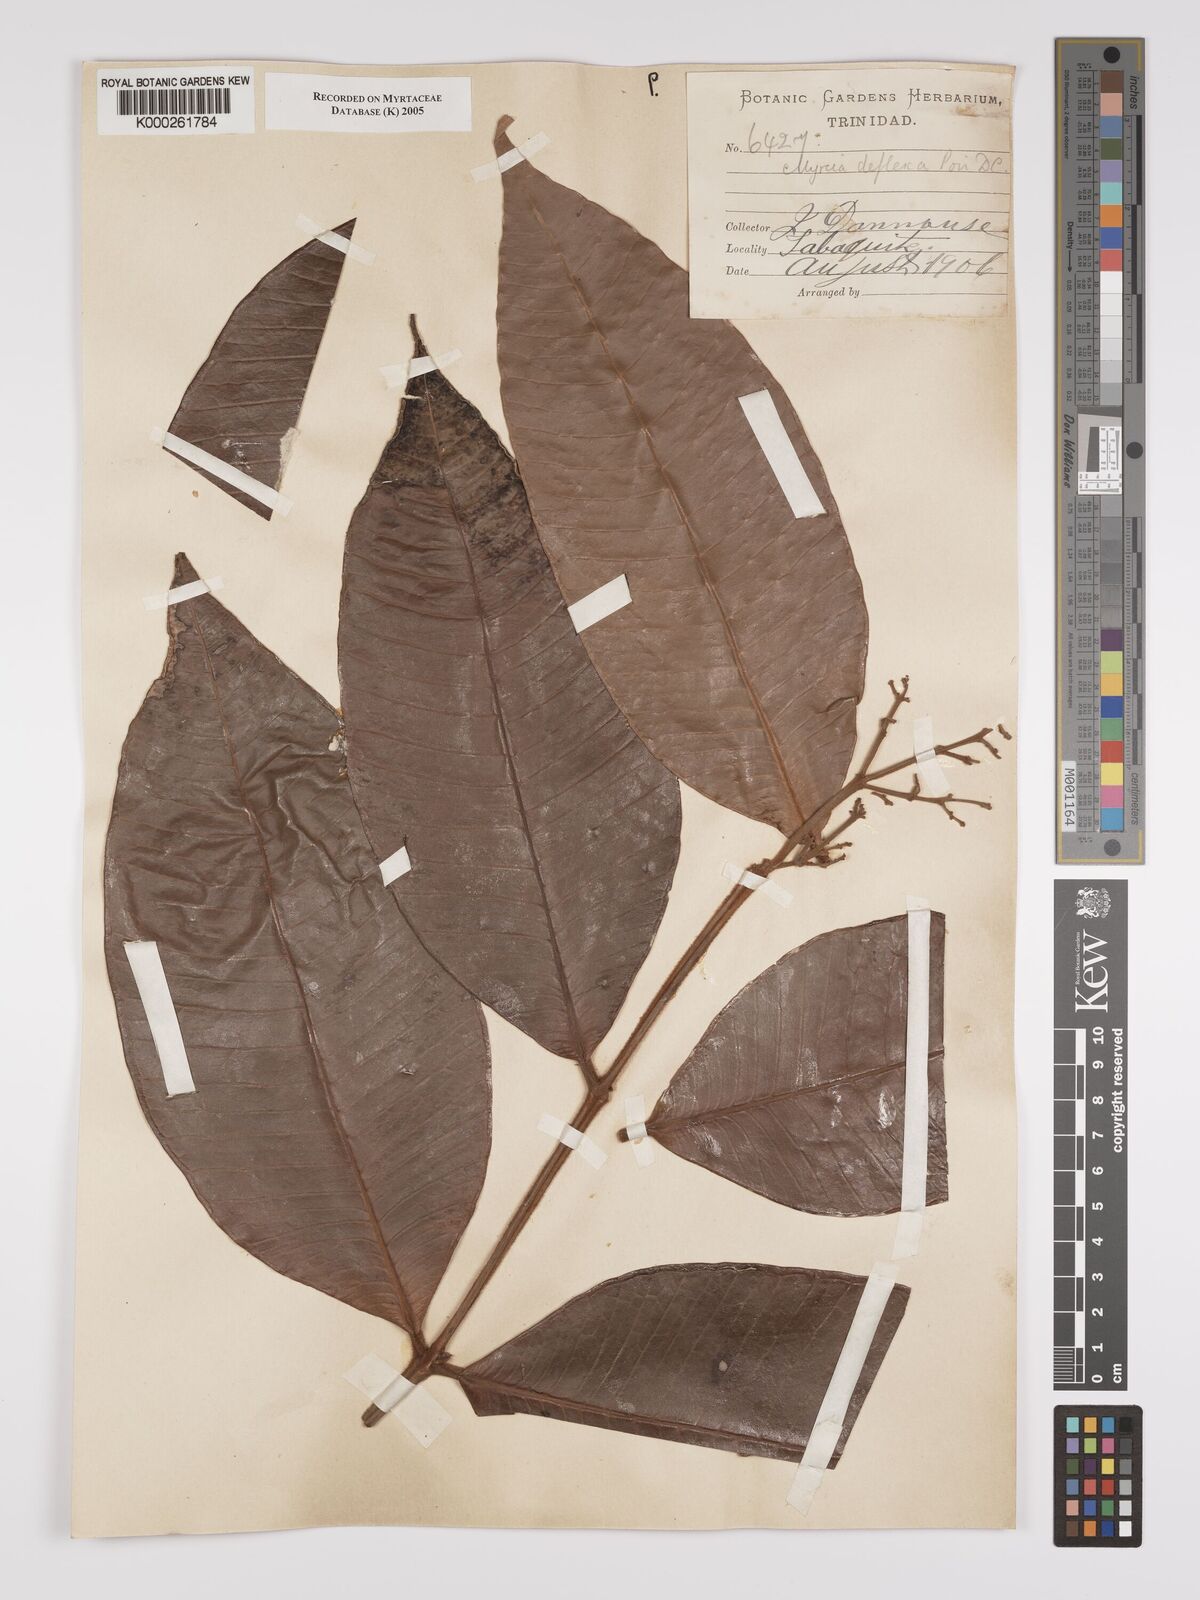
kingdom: Plantae
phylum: Tracheophyta
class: Magnoliopsida
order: Myrtales
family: Myrtaceae
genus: Myrcia
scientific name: Myrcia deflexa
